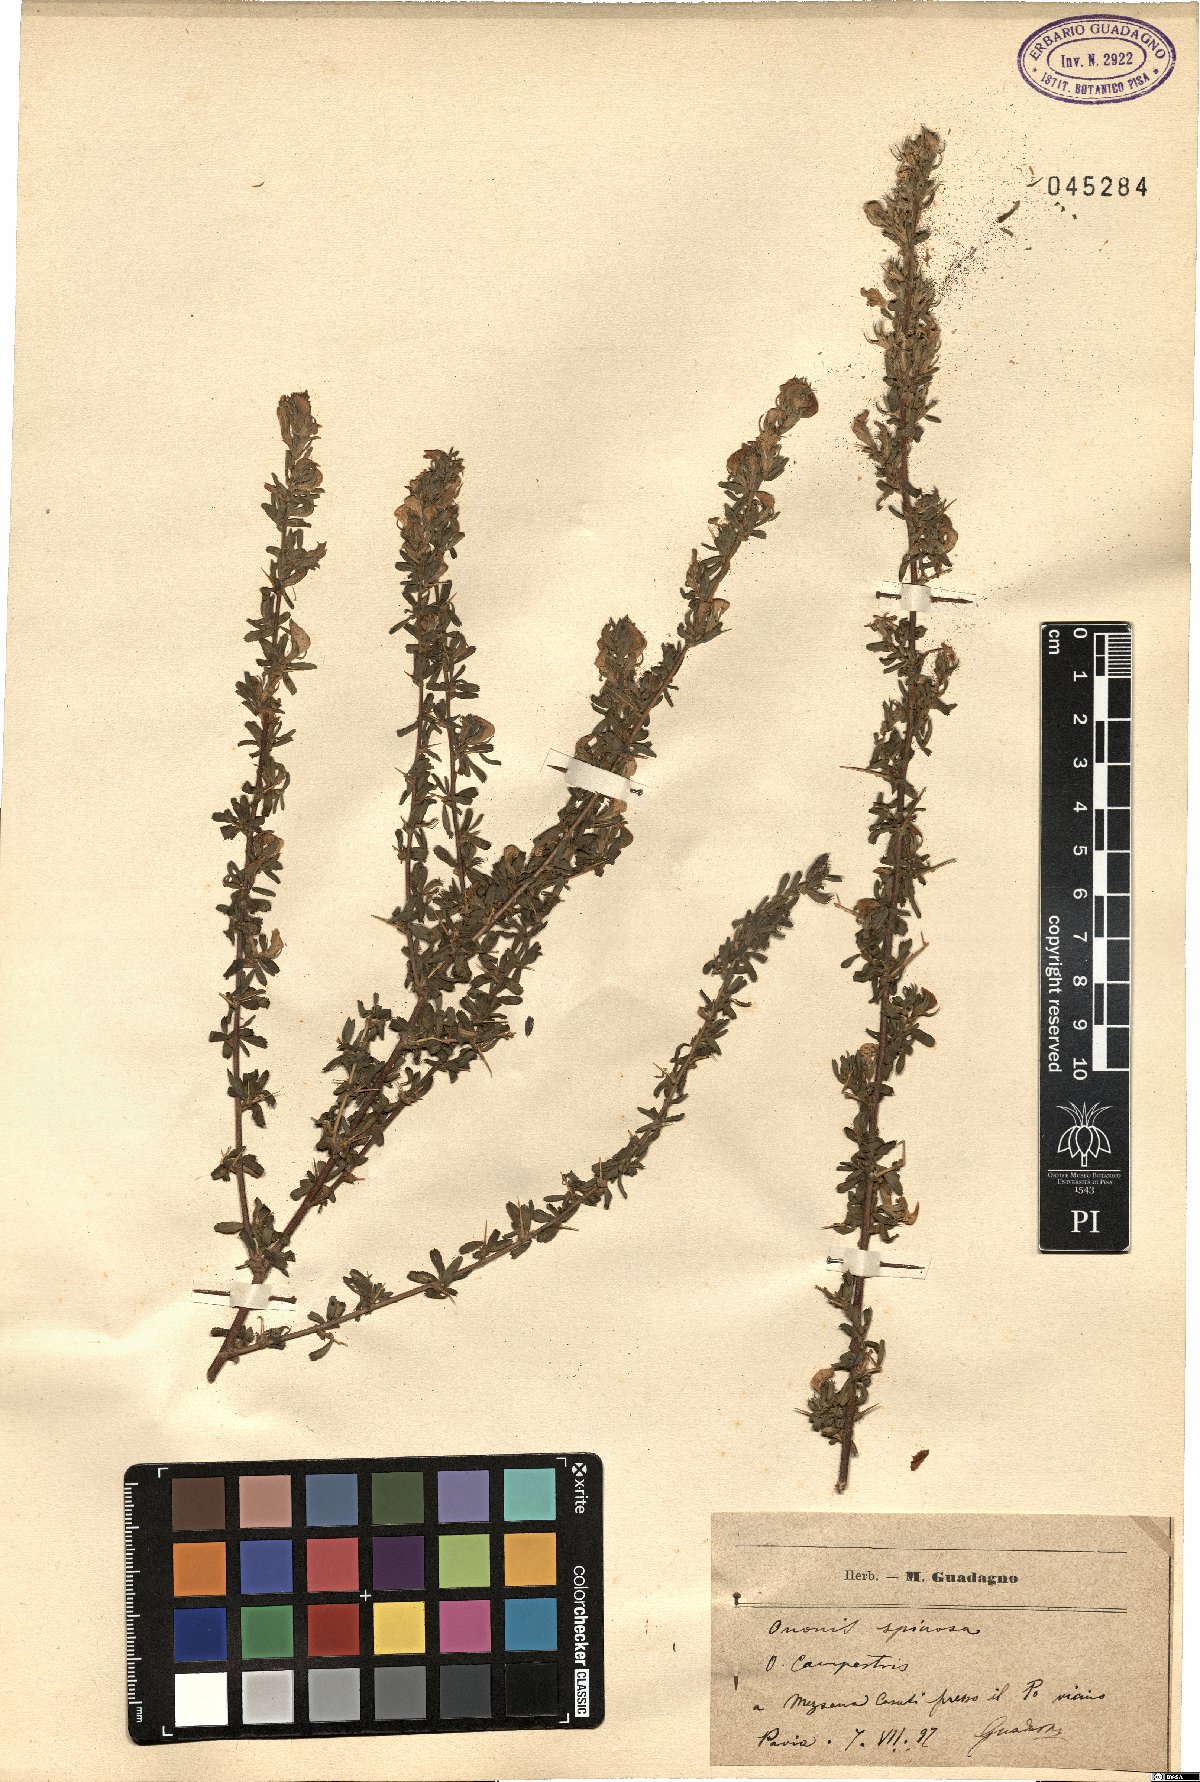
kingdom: Plantae
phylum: Tracheophyta
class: Magnoliopsida
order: Fabales
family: Fabaceae
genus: Ononis
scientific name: Ononis spinosa
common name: Spiny restharrow
